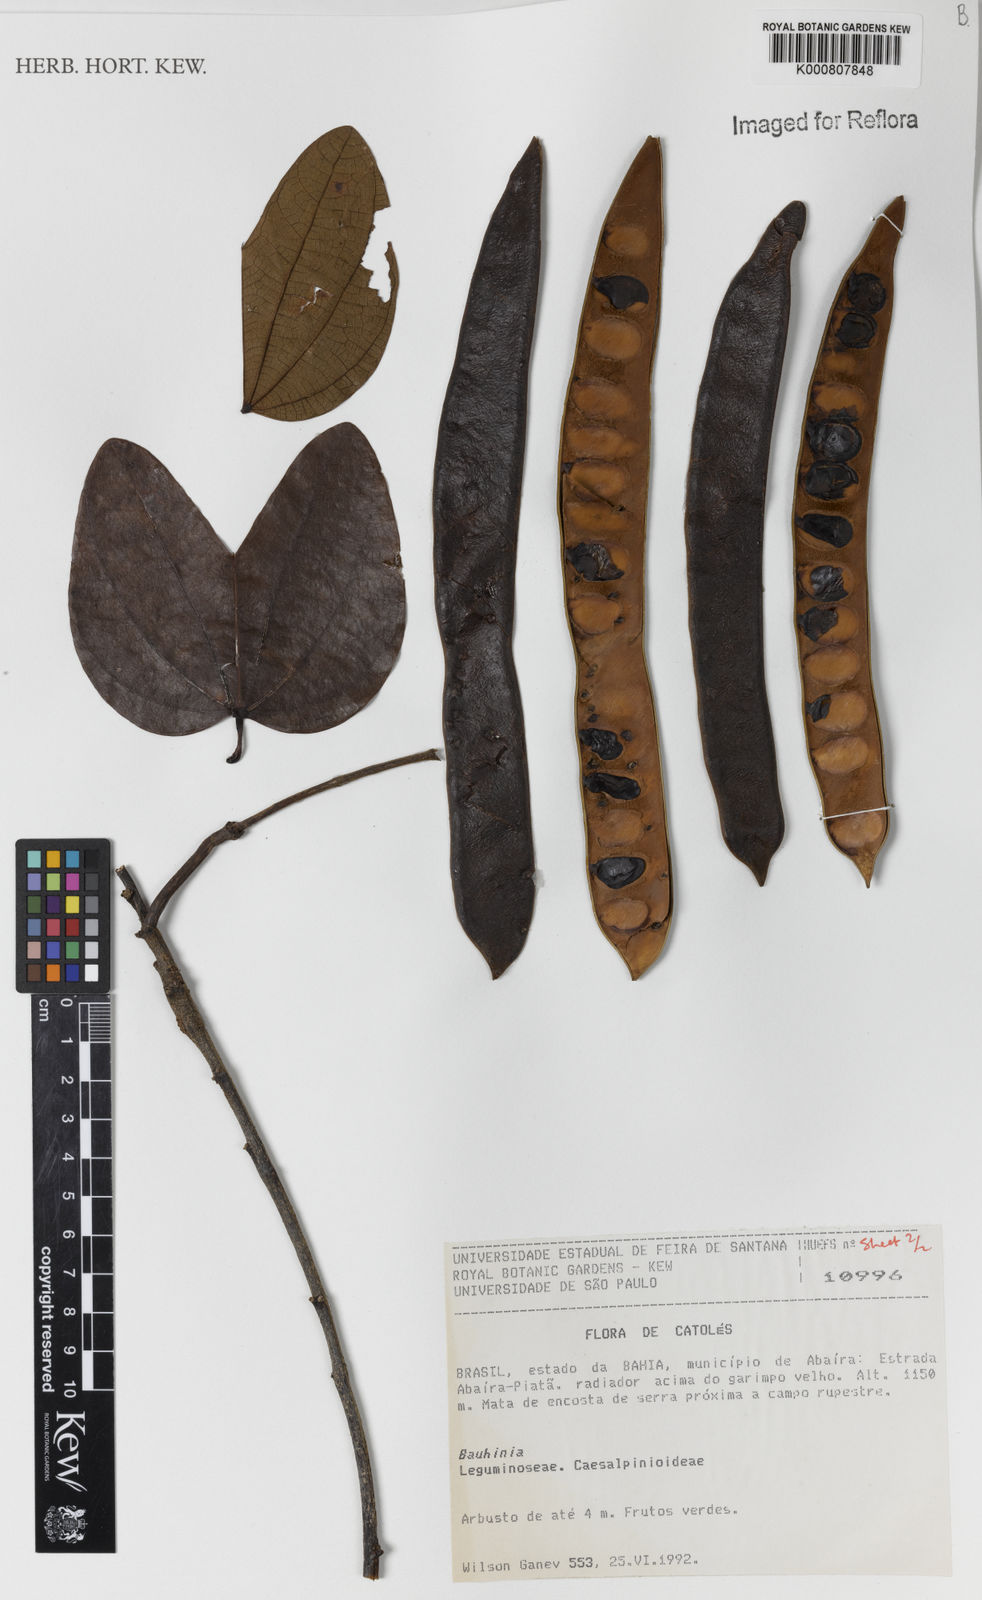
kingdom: Plantae
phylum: Tracheophyta
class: Magnoliopsida
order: Fabales
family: Fabaceae
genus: Bauhinia
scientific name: Bauhinia
